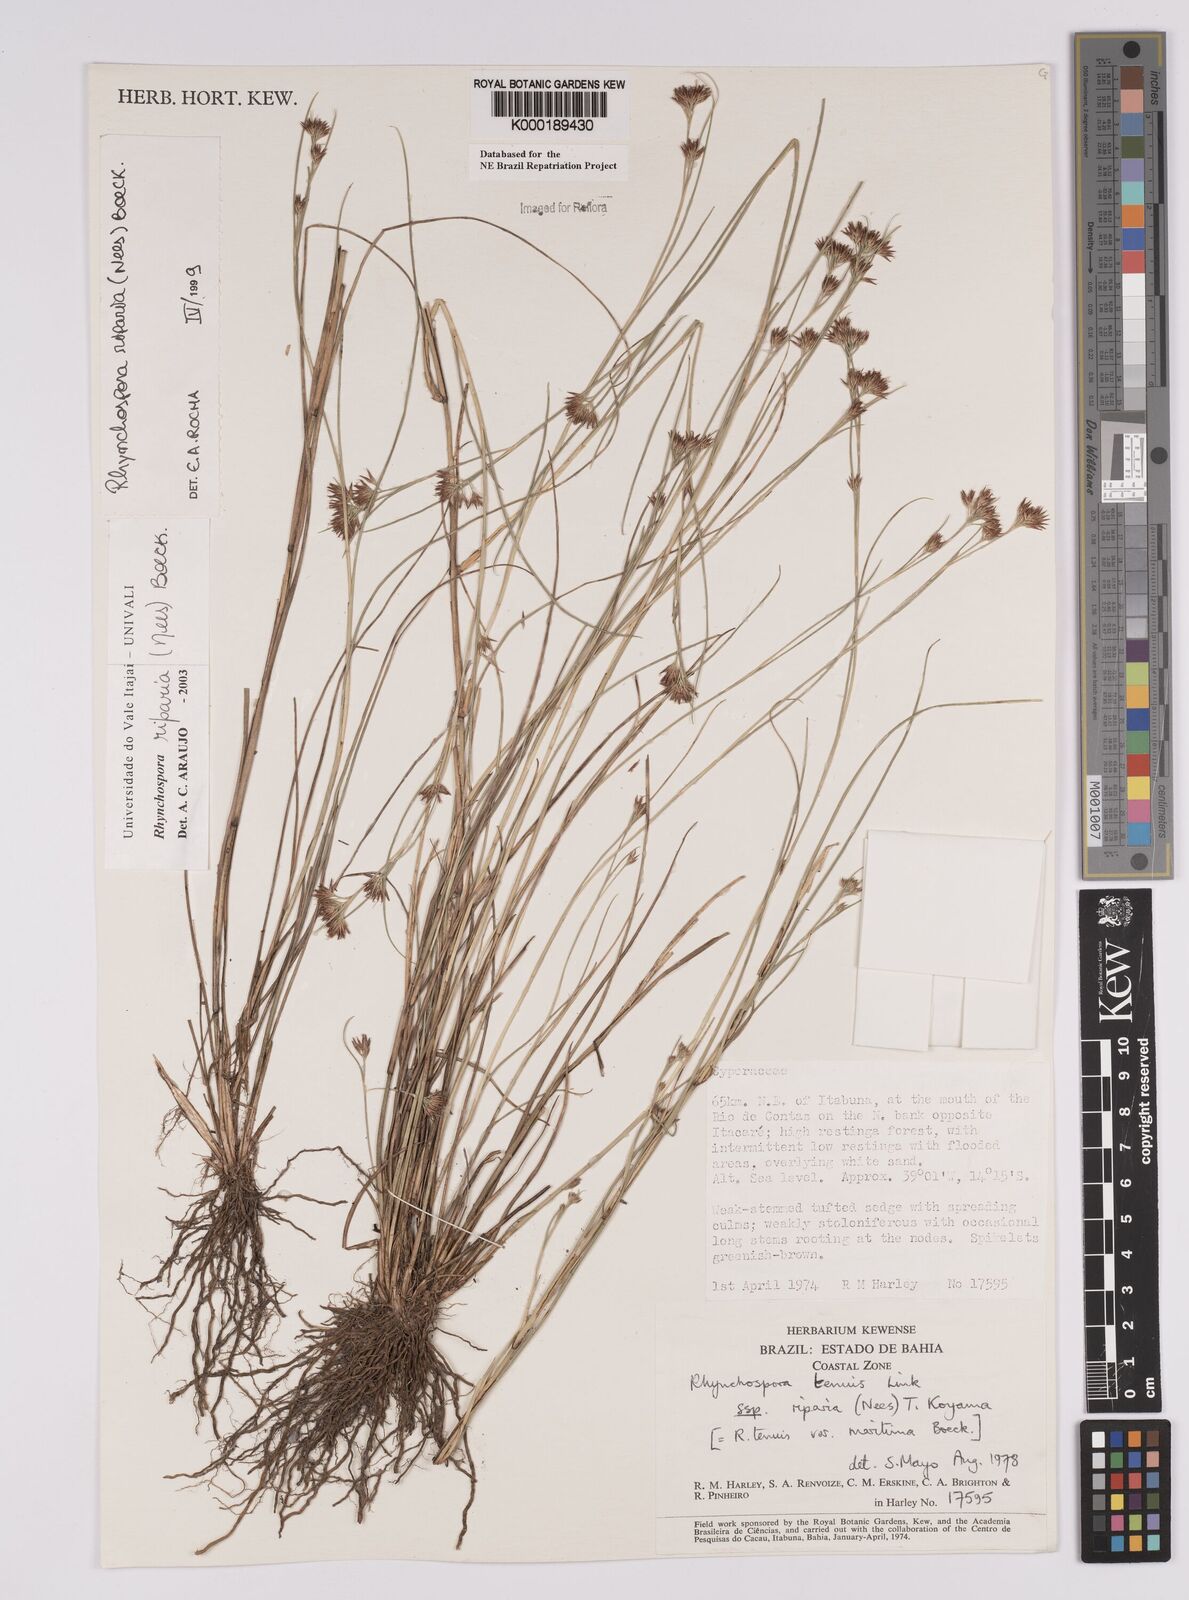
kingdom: Plantae
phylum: Tracheophyta
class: Liliopsida
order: Poales
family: Cyperaceae
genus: Rhynchospora
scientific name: Rhynchospora riparia
